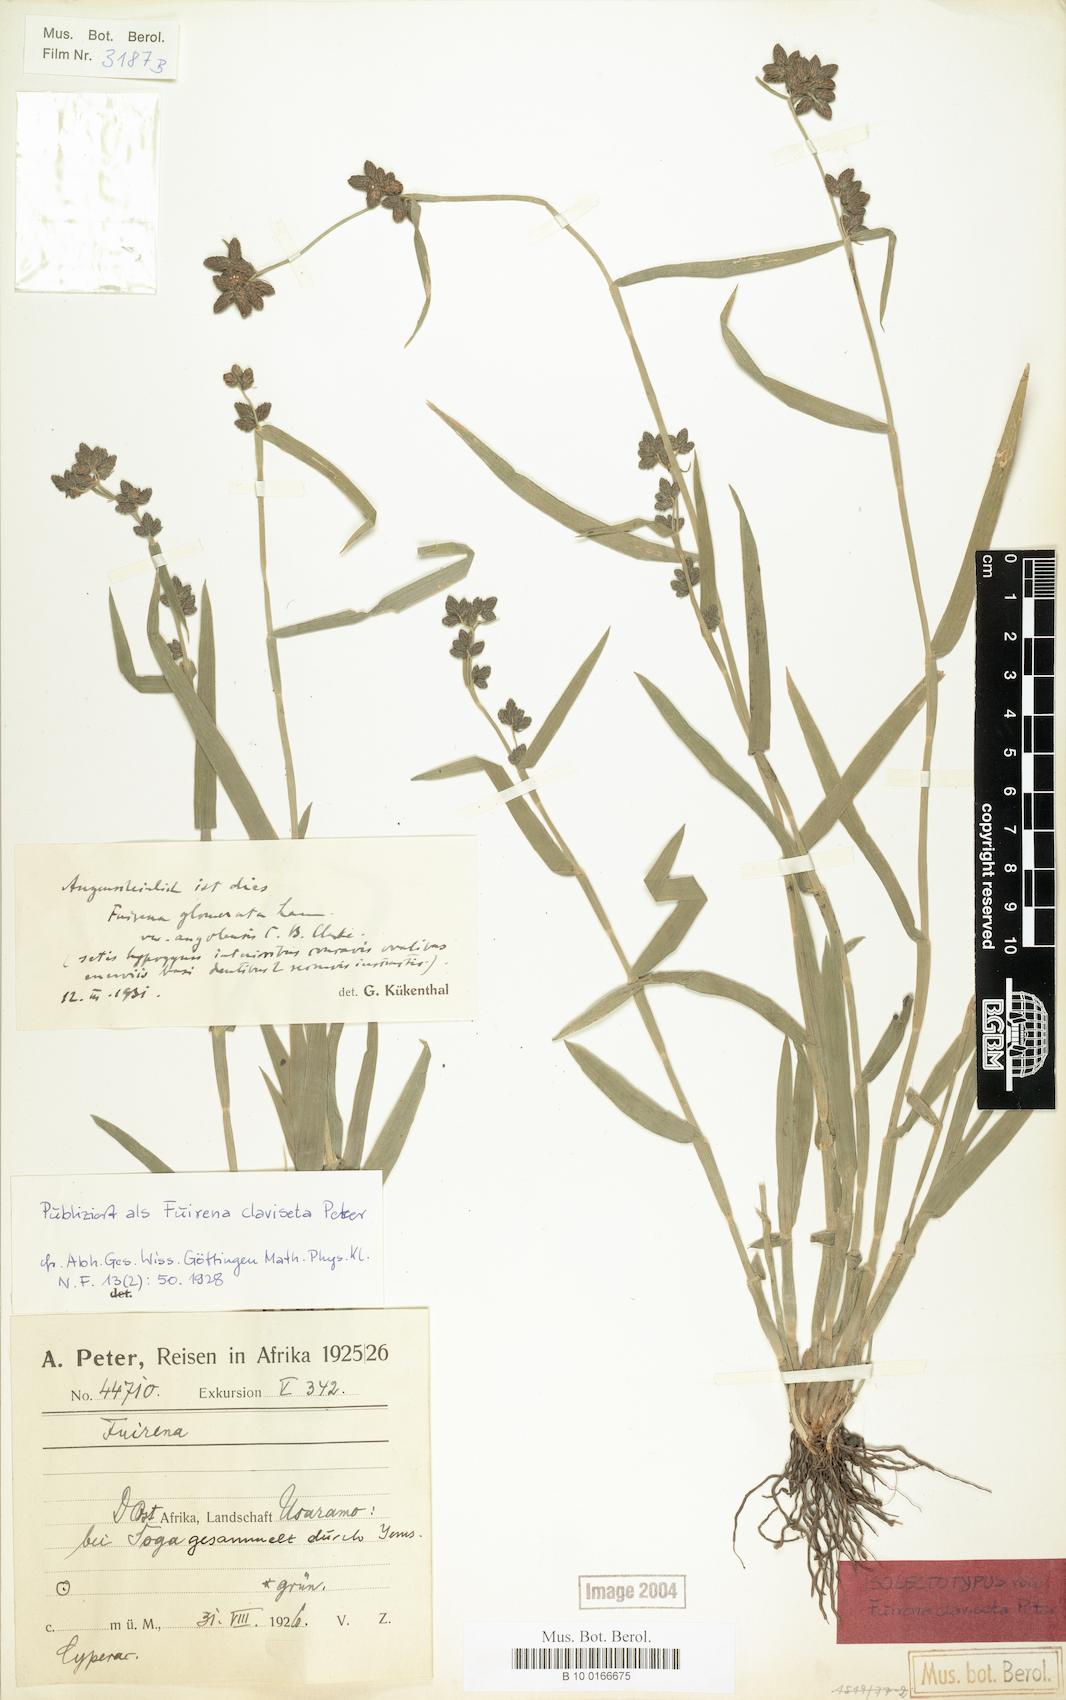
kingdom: Plantae
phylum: Tracheophyta
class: Liliopsida
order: Poales
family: Cyperaceae
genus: Fuirena
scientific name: Fuirena ciliaris
